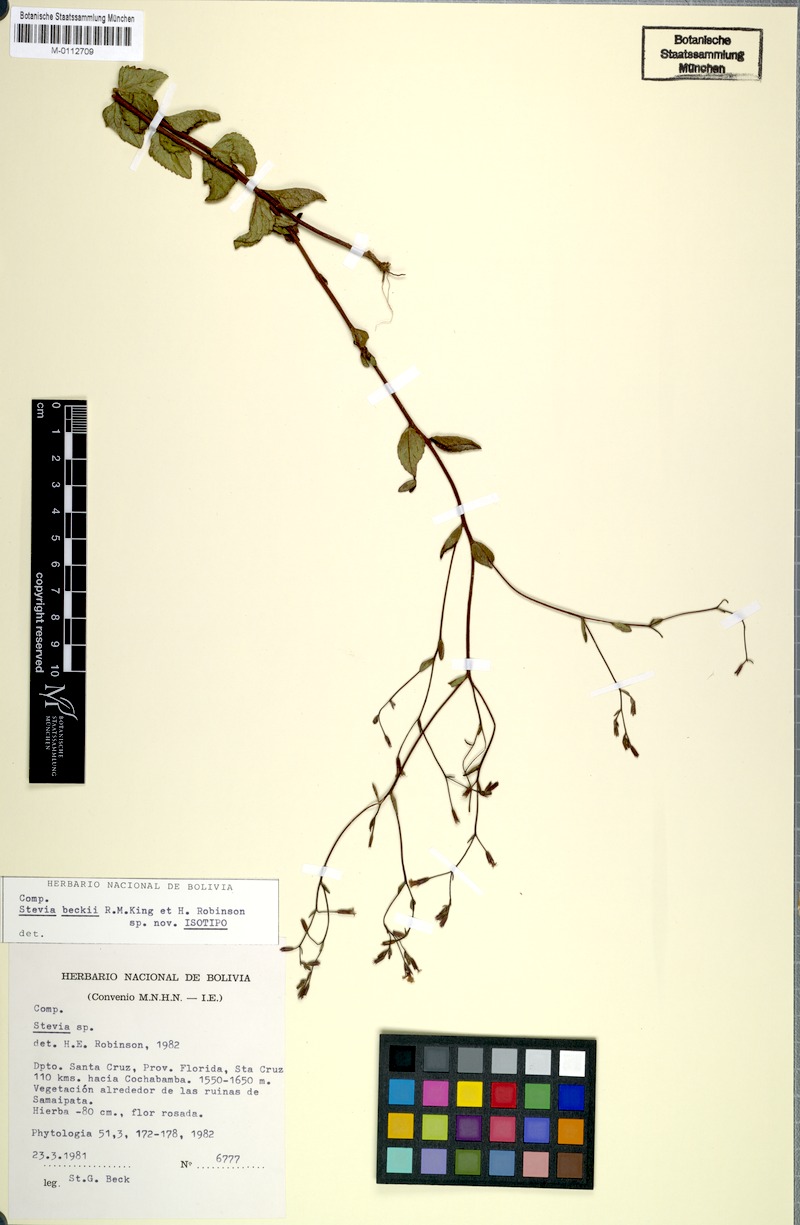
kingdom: Plantae
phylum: Tracheophyta
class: Magnoliopsida
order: Asterales
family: Asteraceae
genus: Stevia
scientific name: Stevia beckii
